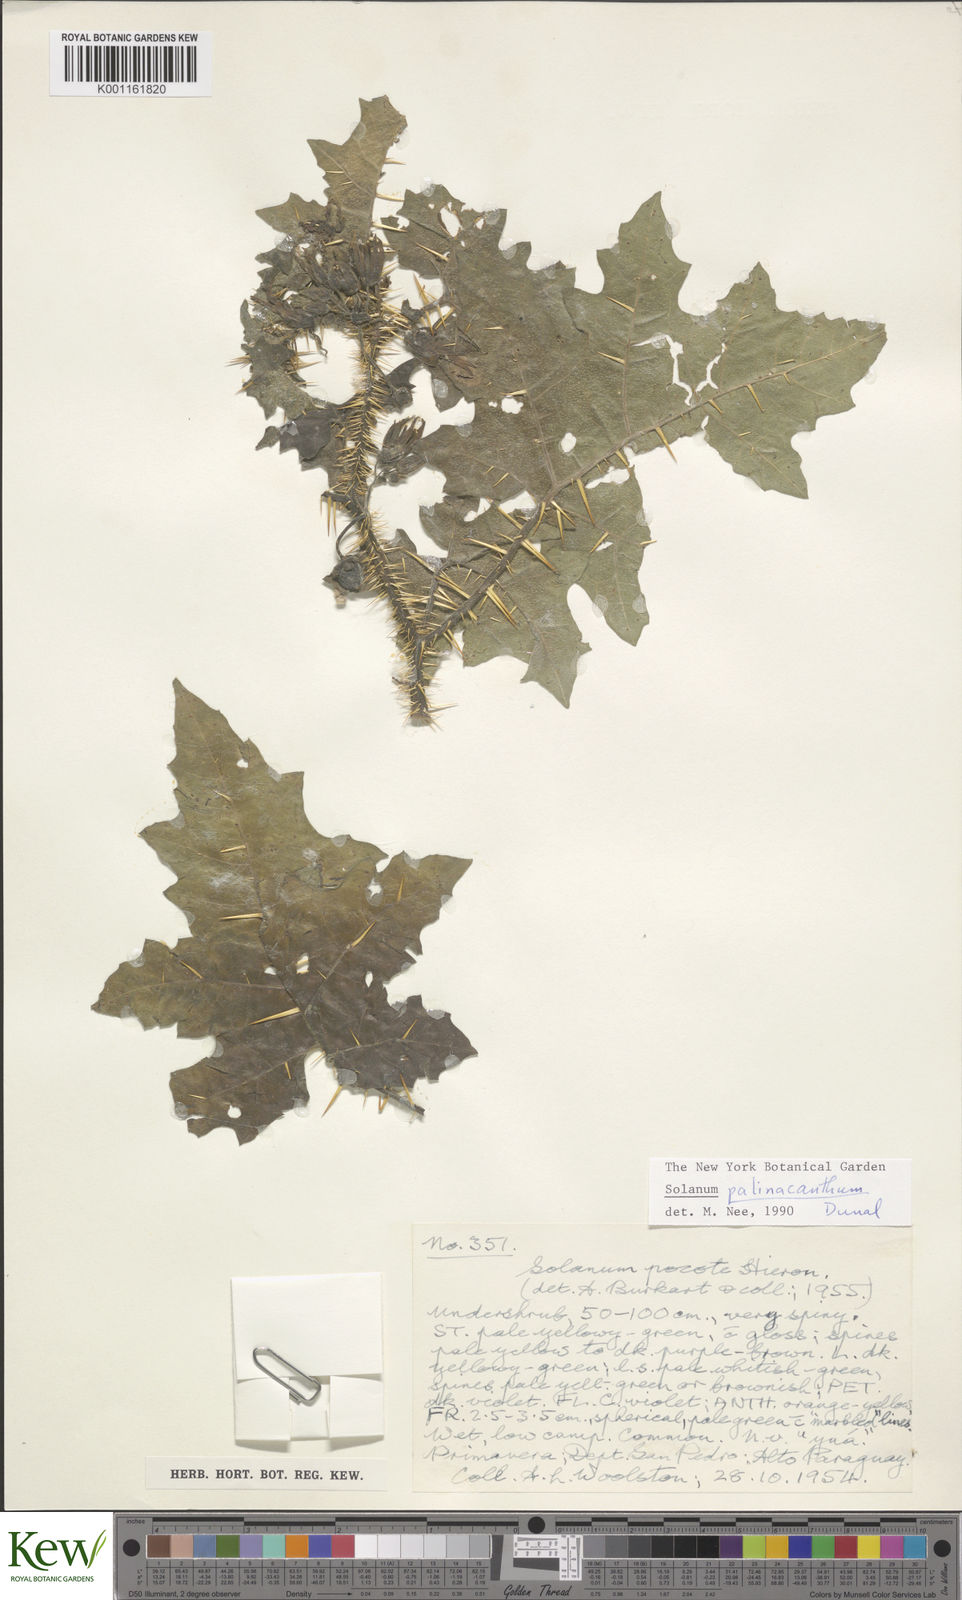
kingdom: Plantae
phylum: Tracheophyta
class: Magnoliopsida
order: Solanales
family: Solanaceae
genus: Solanum
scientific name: Solanum palinacanthum
